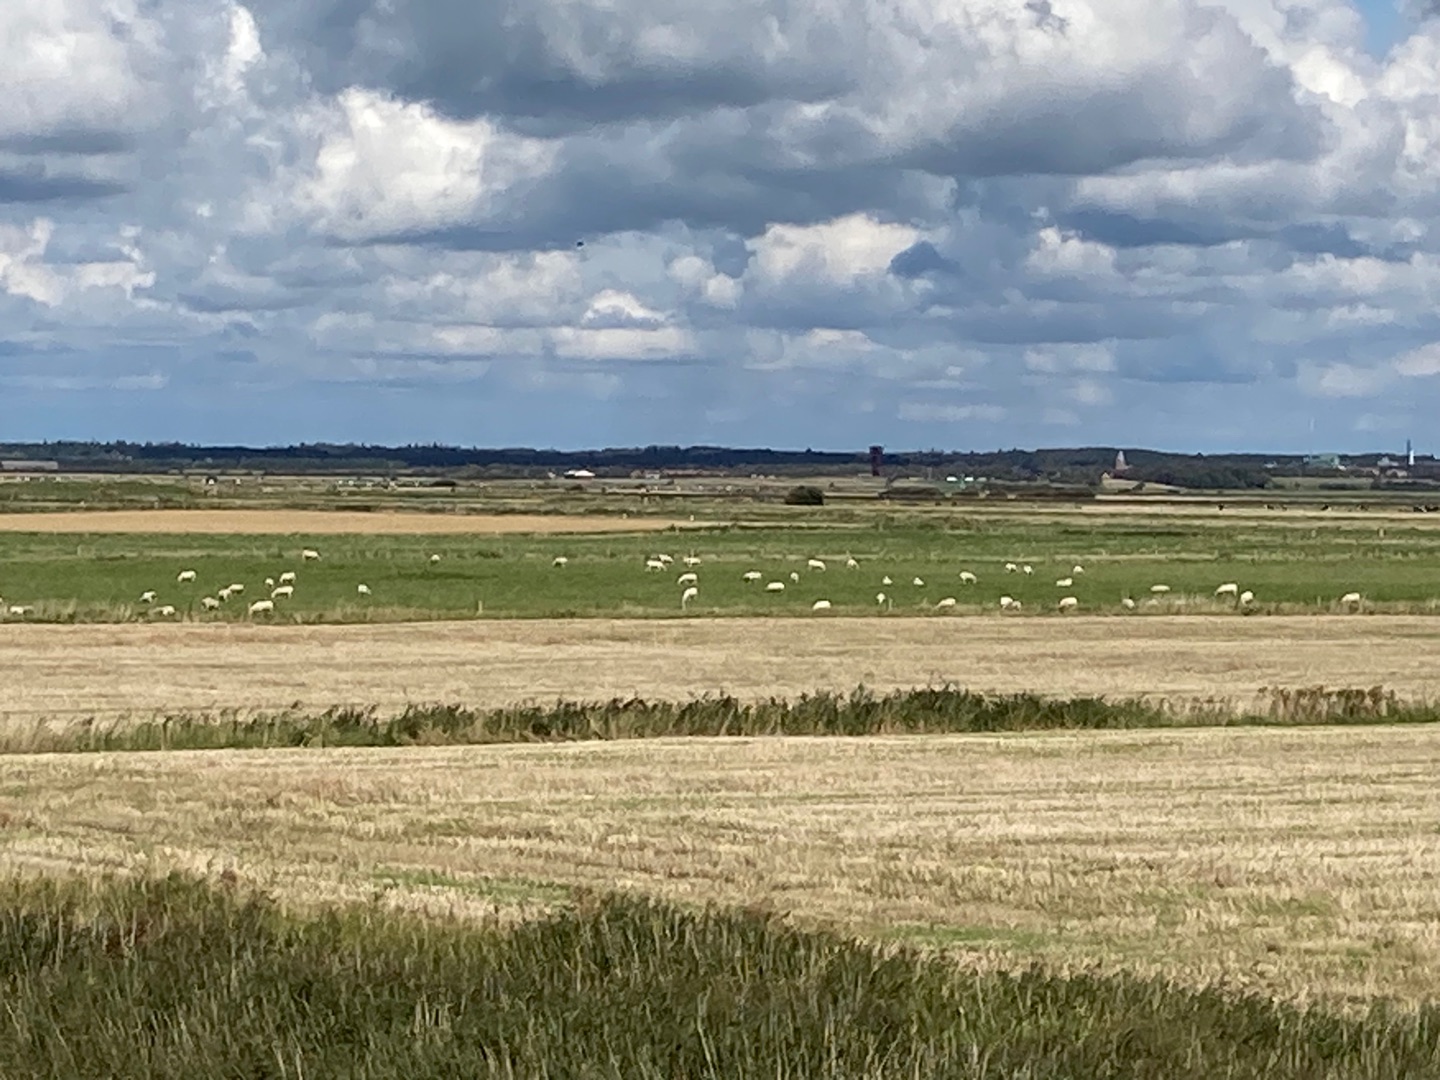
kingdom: Animalia
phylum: Chordata
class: Aves
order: Accipitriformes
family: Accipitridae
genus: Haliaeetus
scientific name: Haliaeetus albicilla
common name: Havørn
